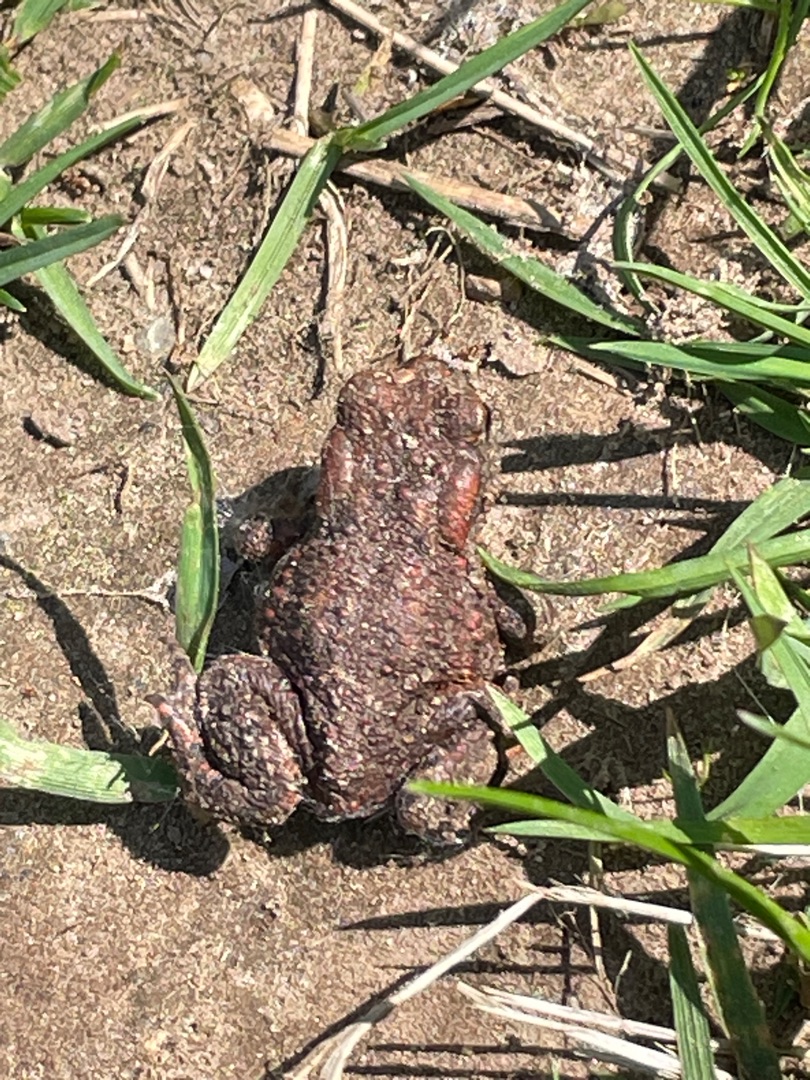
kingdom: Animalia
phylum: Chordata
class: Amphibia
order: Anura
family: Bufonidae
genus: Bufo
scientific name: Bufo bufo
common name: Skrubtudse
